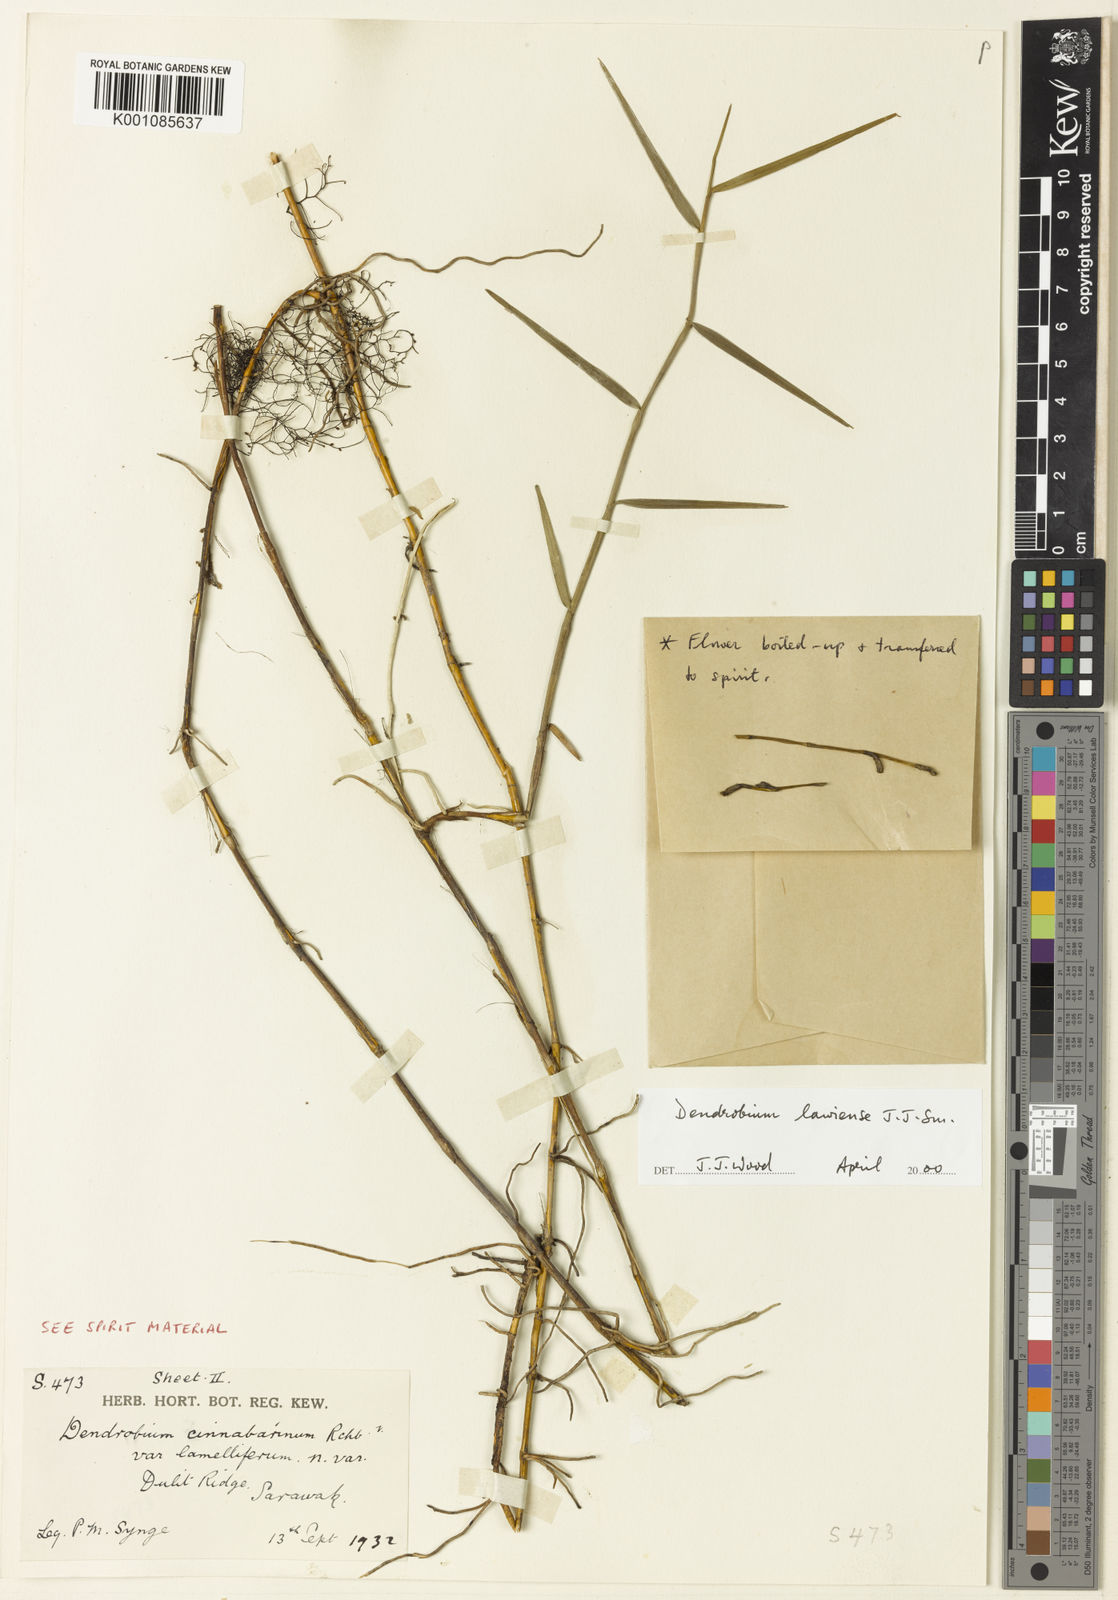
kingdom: Plantae
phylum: Tracheophyta
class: Liliopsida
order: Asparagales
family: Orchidaceae
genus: Dendrobium
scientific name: Dendrobium lawiense
